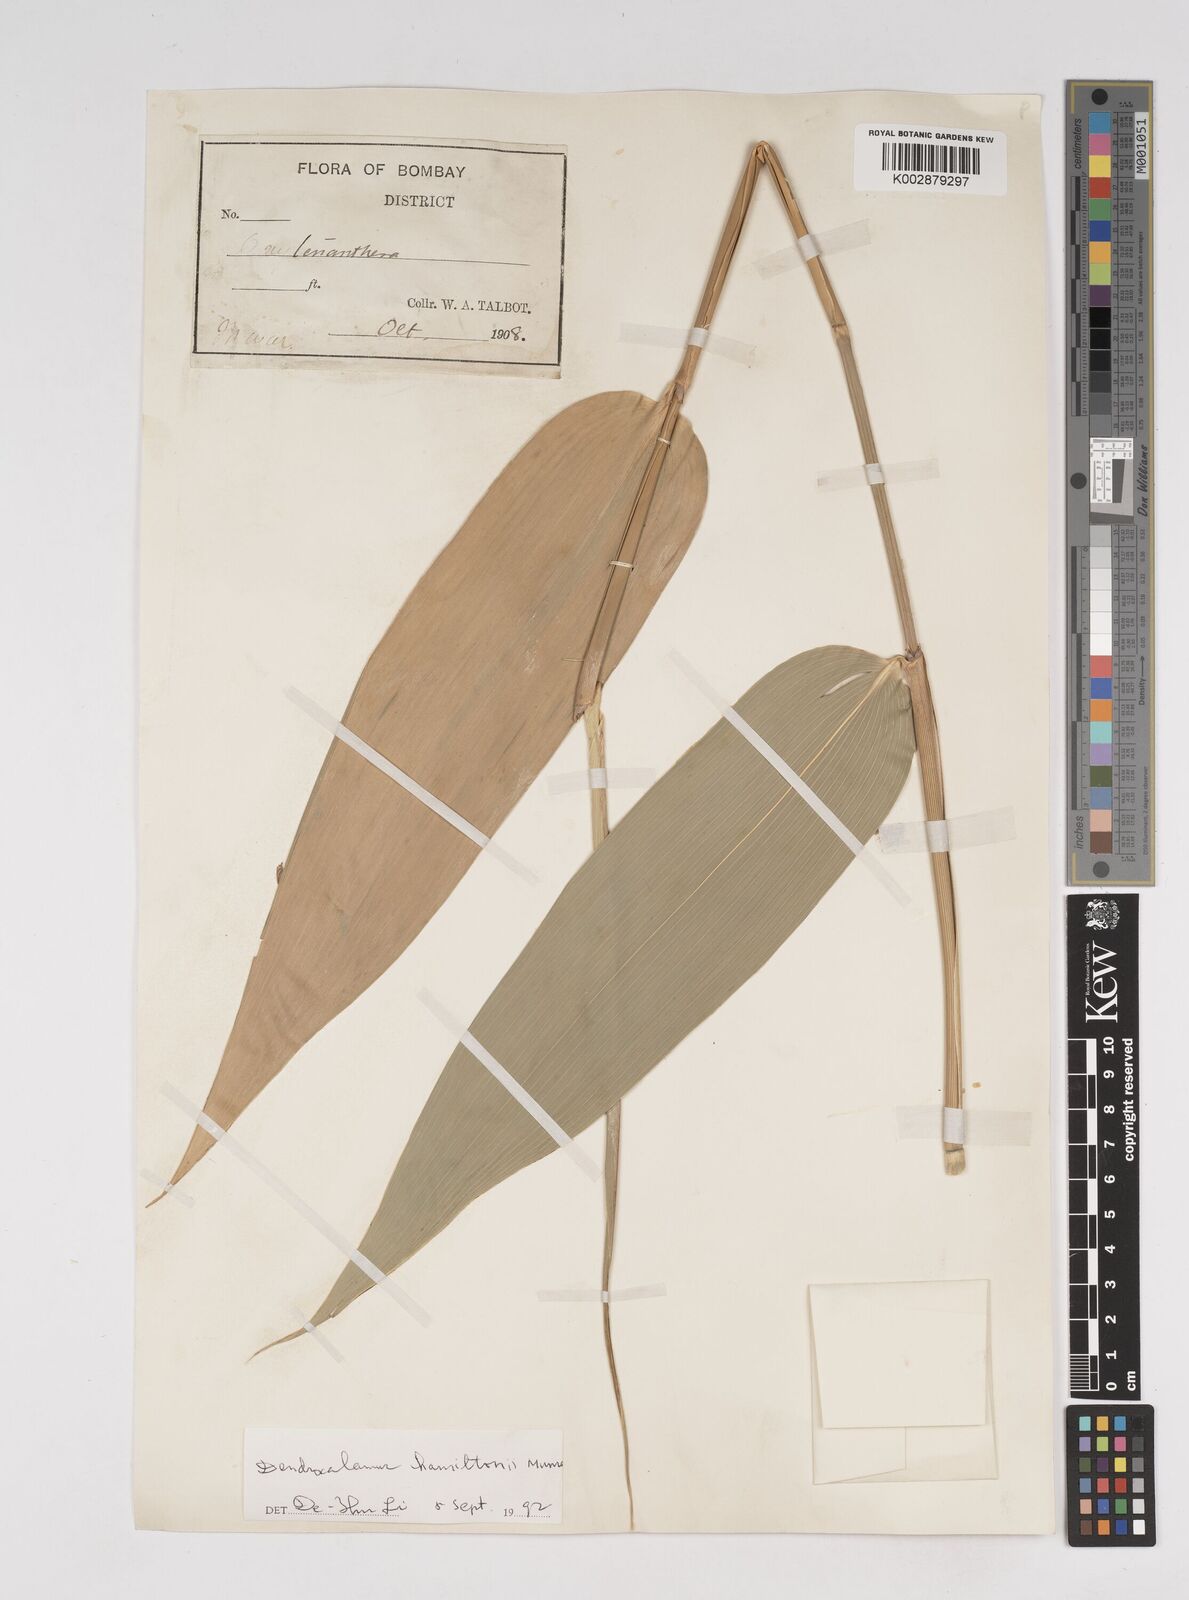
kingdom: Plantae
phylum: Tracheophyta
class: Liliopsida
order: Poales
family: Poaceae
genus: Dendrocalamus
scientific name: Dendrocalamus
